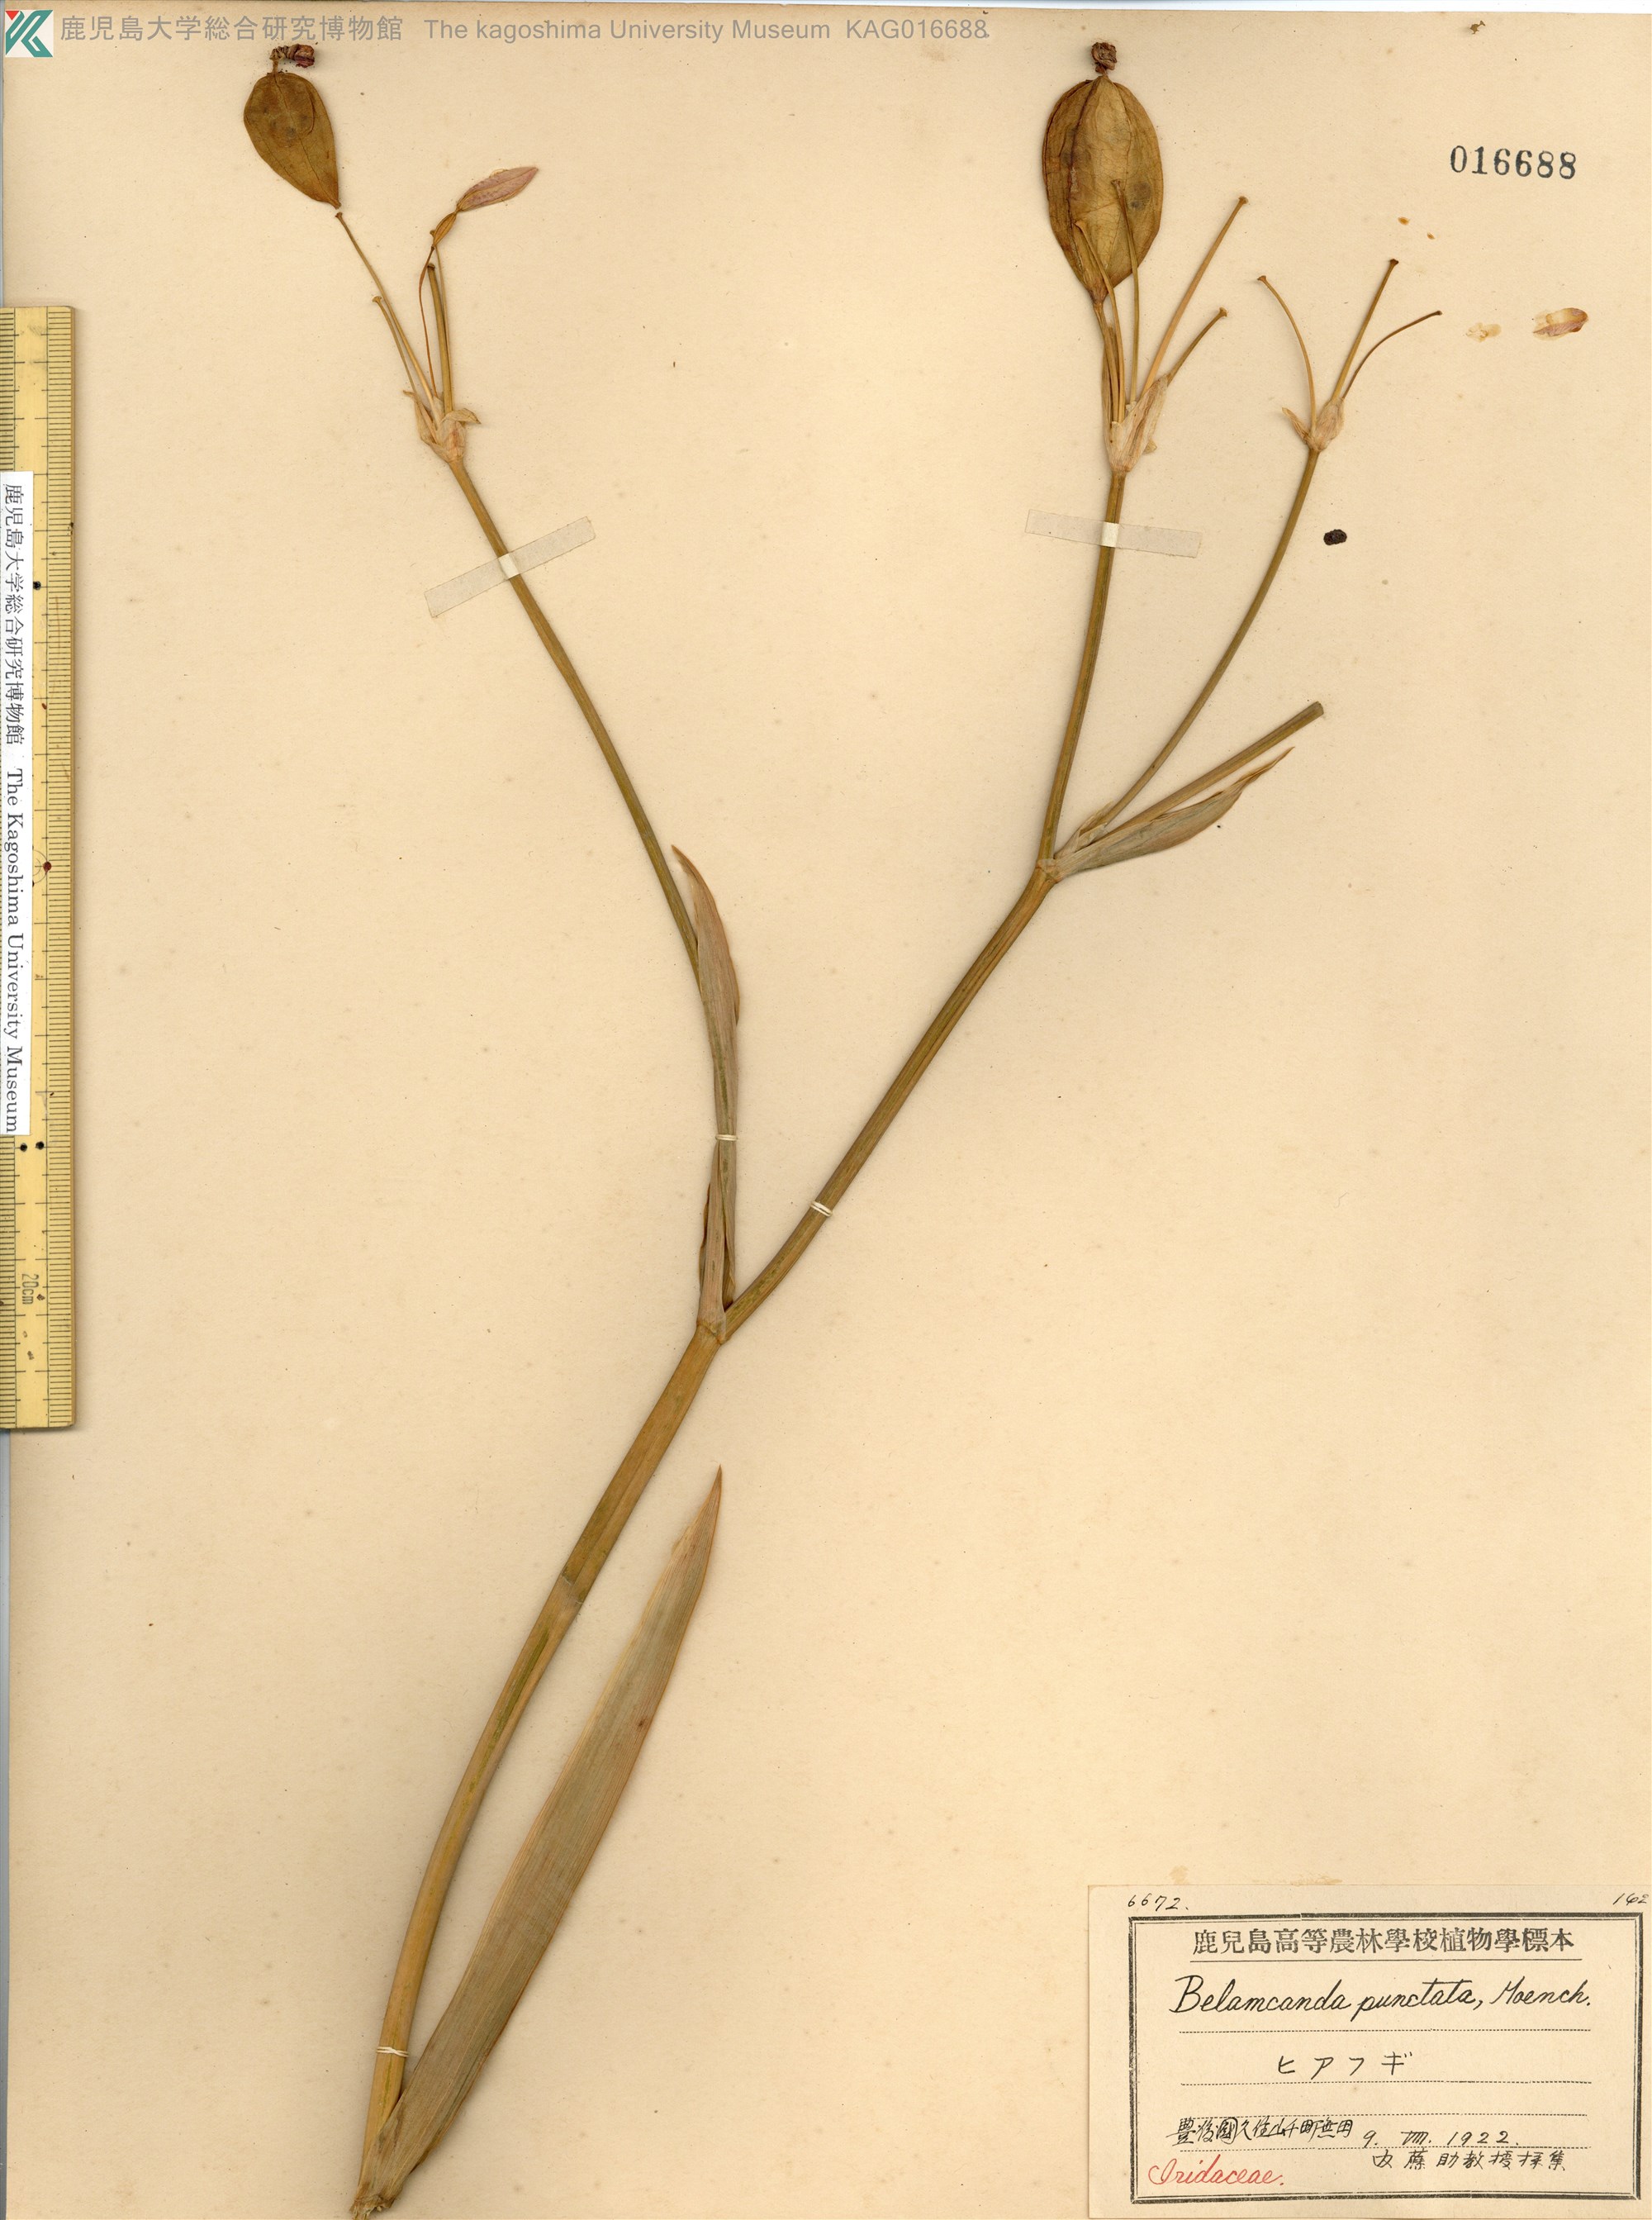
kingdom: Plantae
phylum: Tracheophyta
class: Liliopsida
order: Asparagales
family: Iridaceae
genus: Iris
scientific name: Iris domestica
